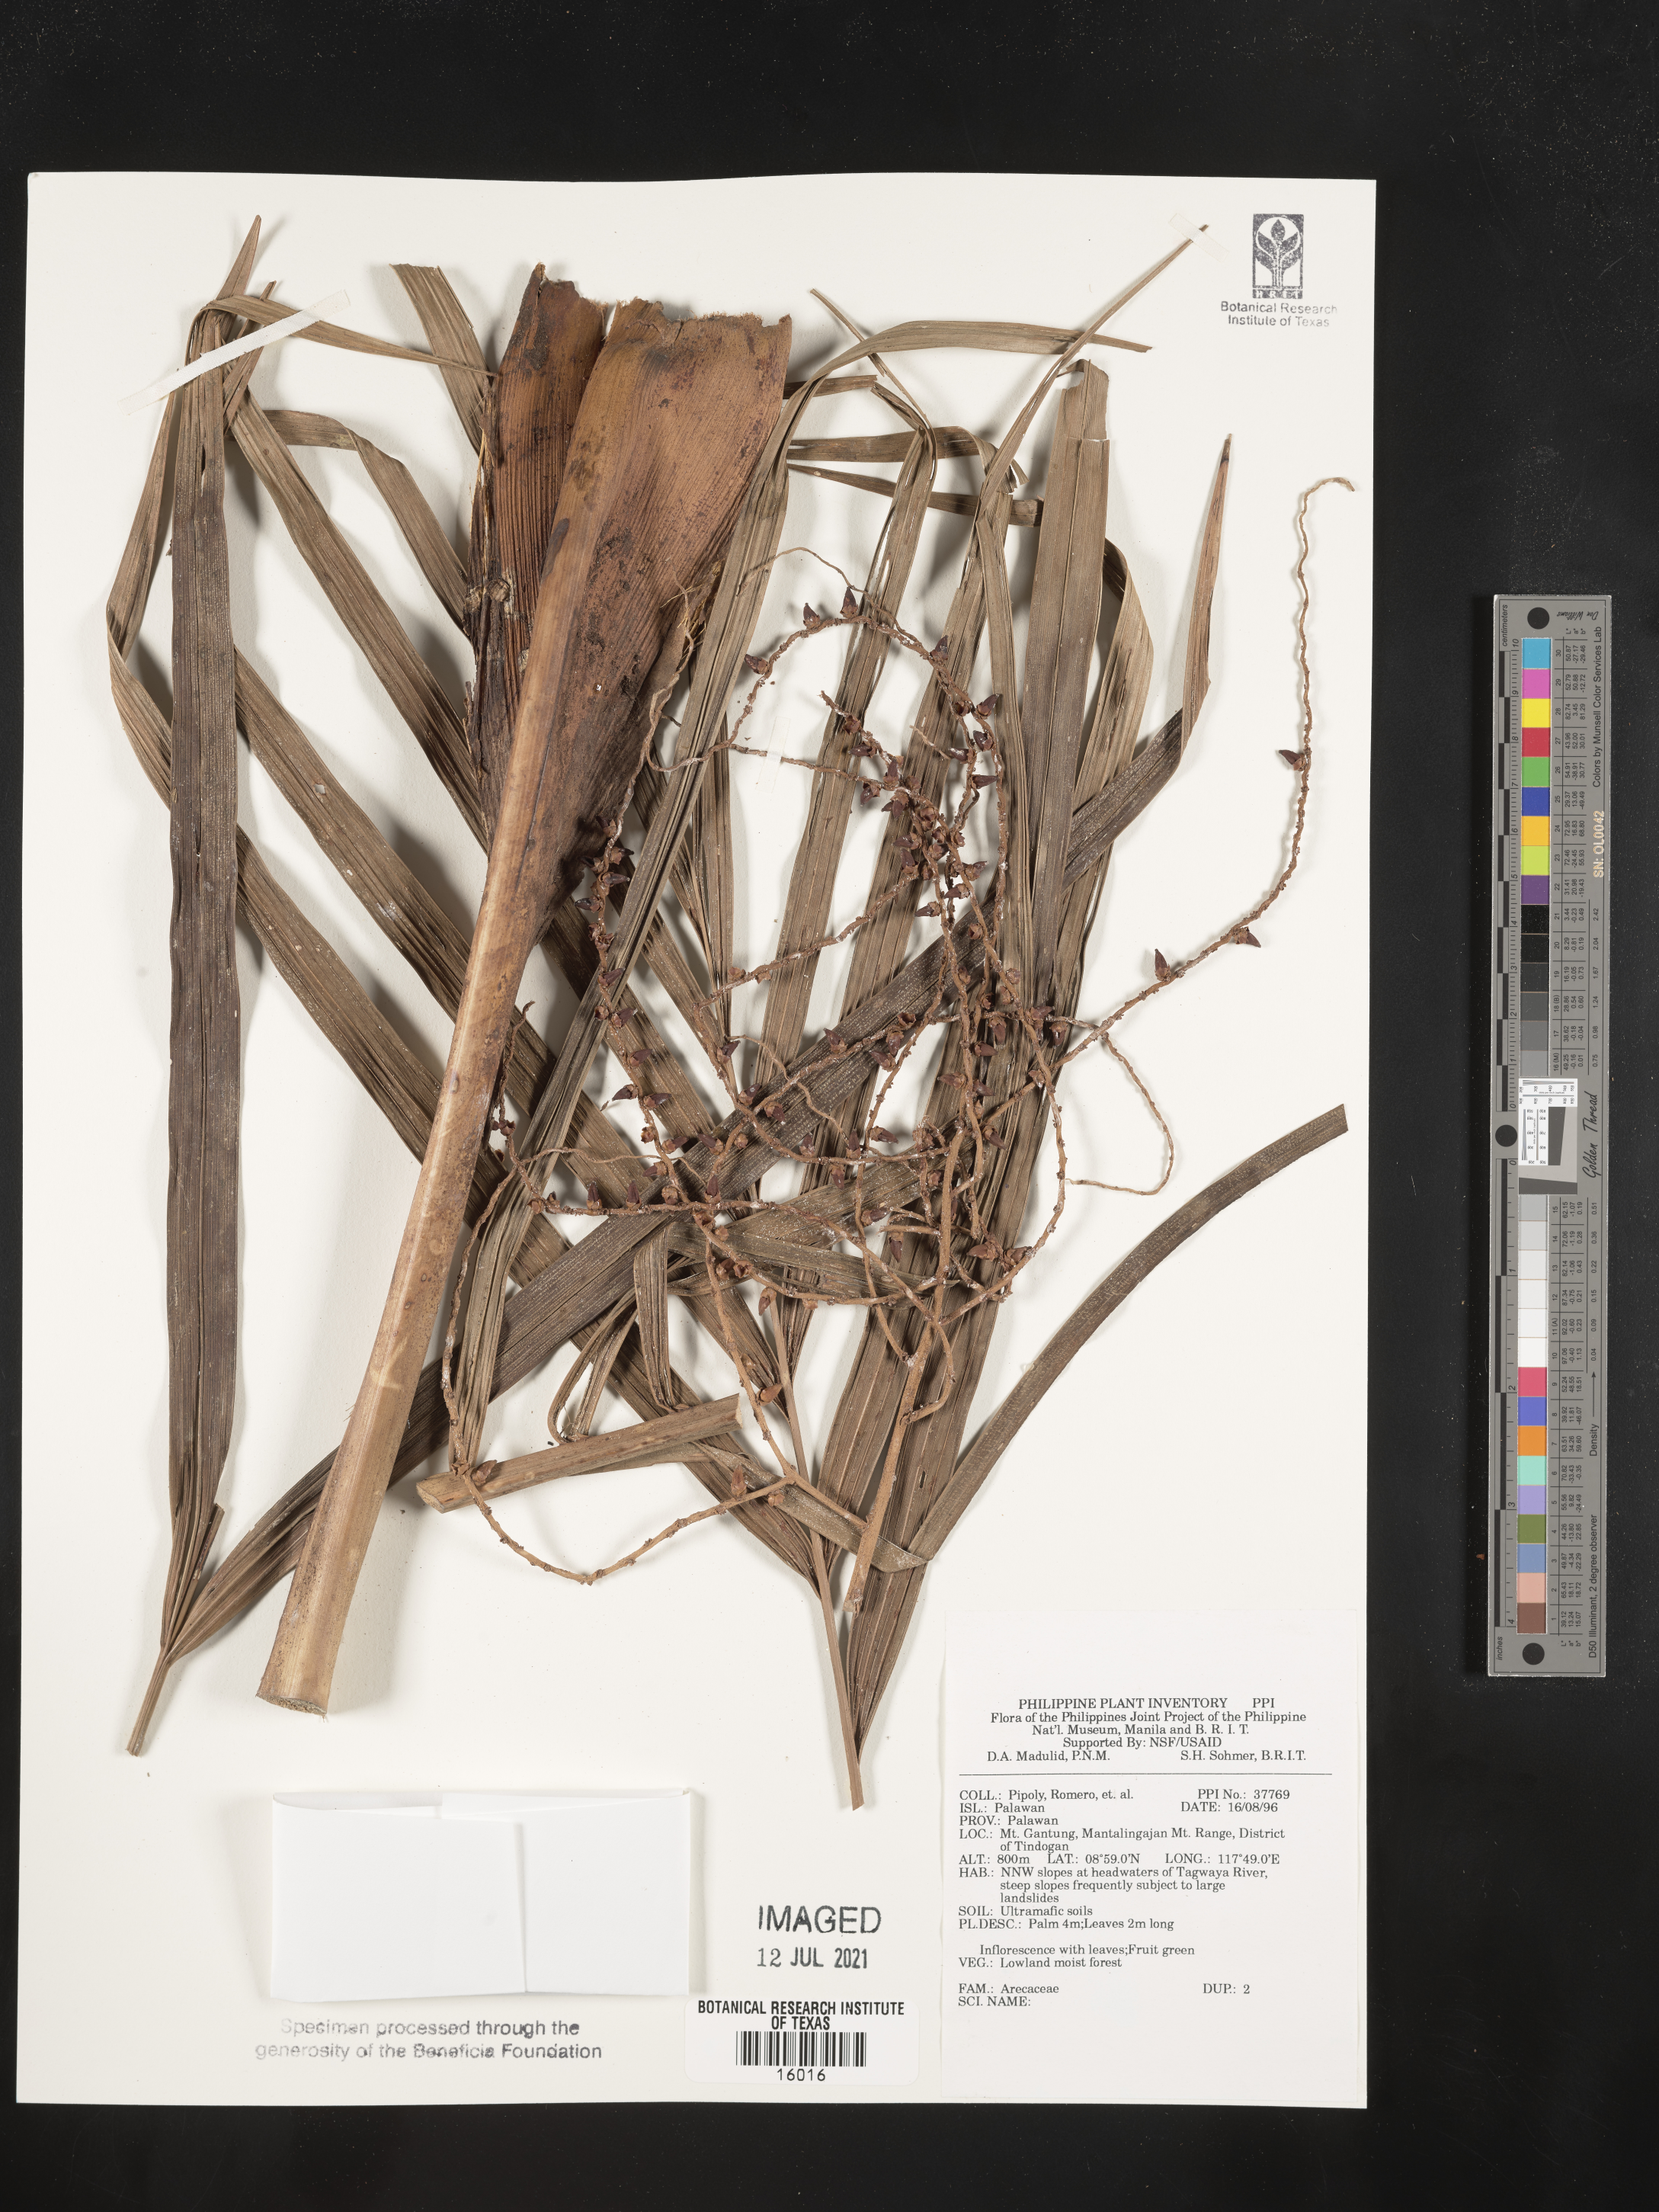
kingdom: Plantae
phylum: Tracheophyta
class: Liliopsida
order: Arecales
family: Arecaceae
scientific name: Arecaceae
